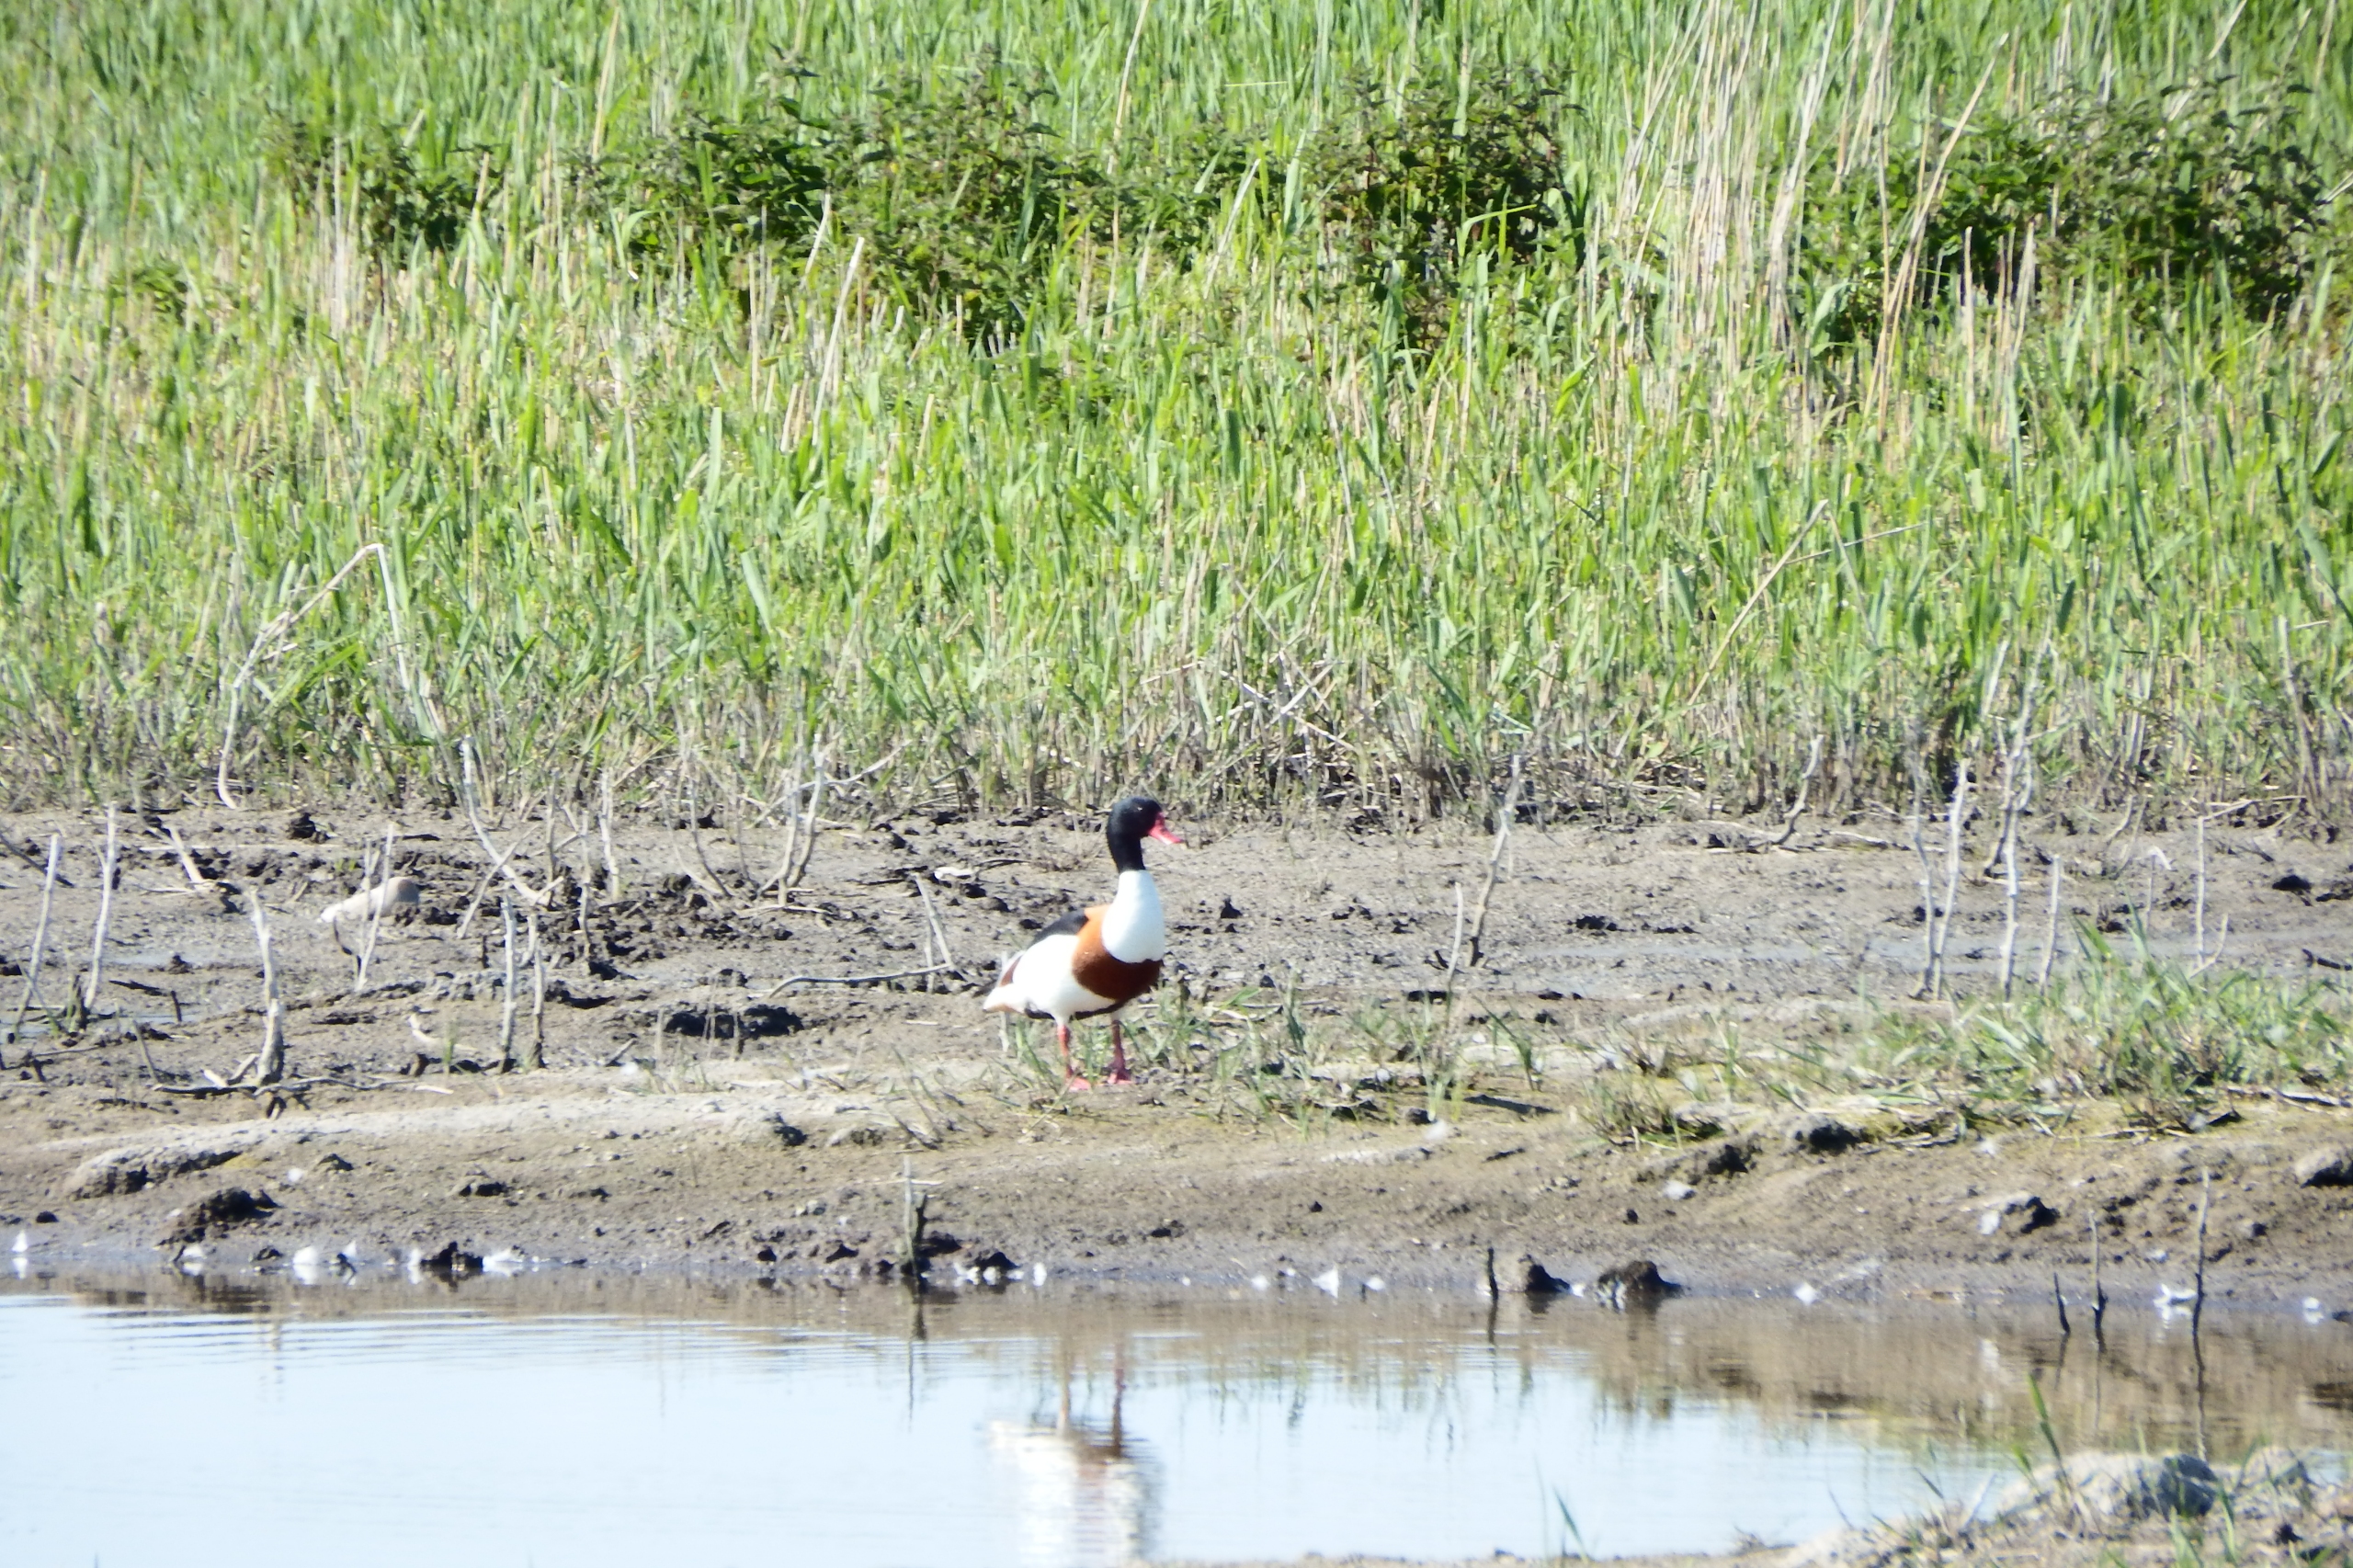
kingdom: Animalia
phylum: Chordata
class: Aves
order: Anseriformes
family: Anatidae
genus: Tadorna
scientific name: Tadorna tadorna
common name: Gravand
